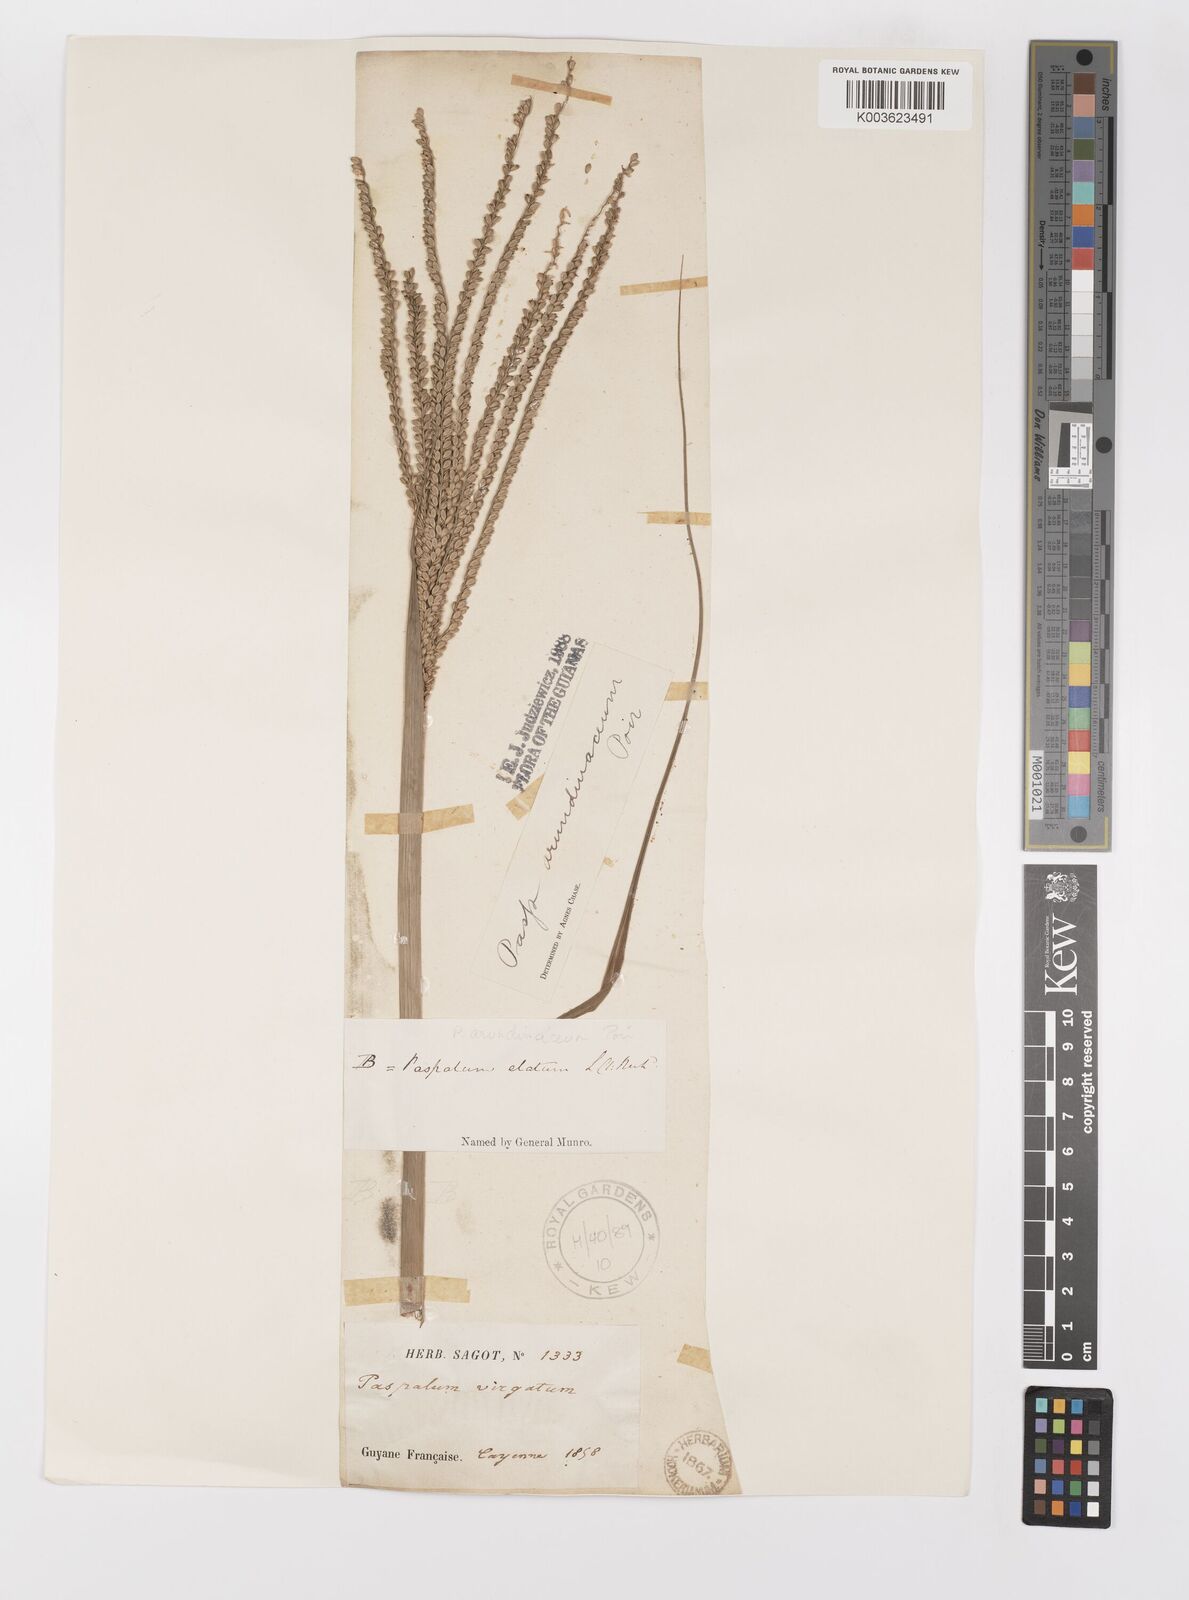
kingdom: Plantae
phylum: Tracheophyta
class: Liliopsida
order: Poales
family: Poaceae
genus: Paspalum
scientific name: Paspalum arundinaceum
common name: Thick ditch crowngrass
